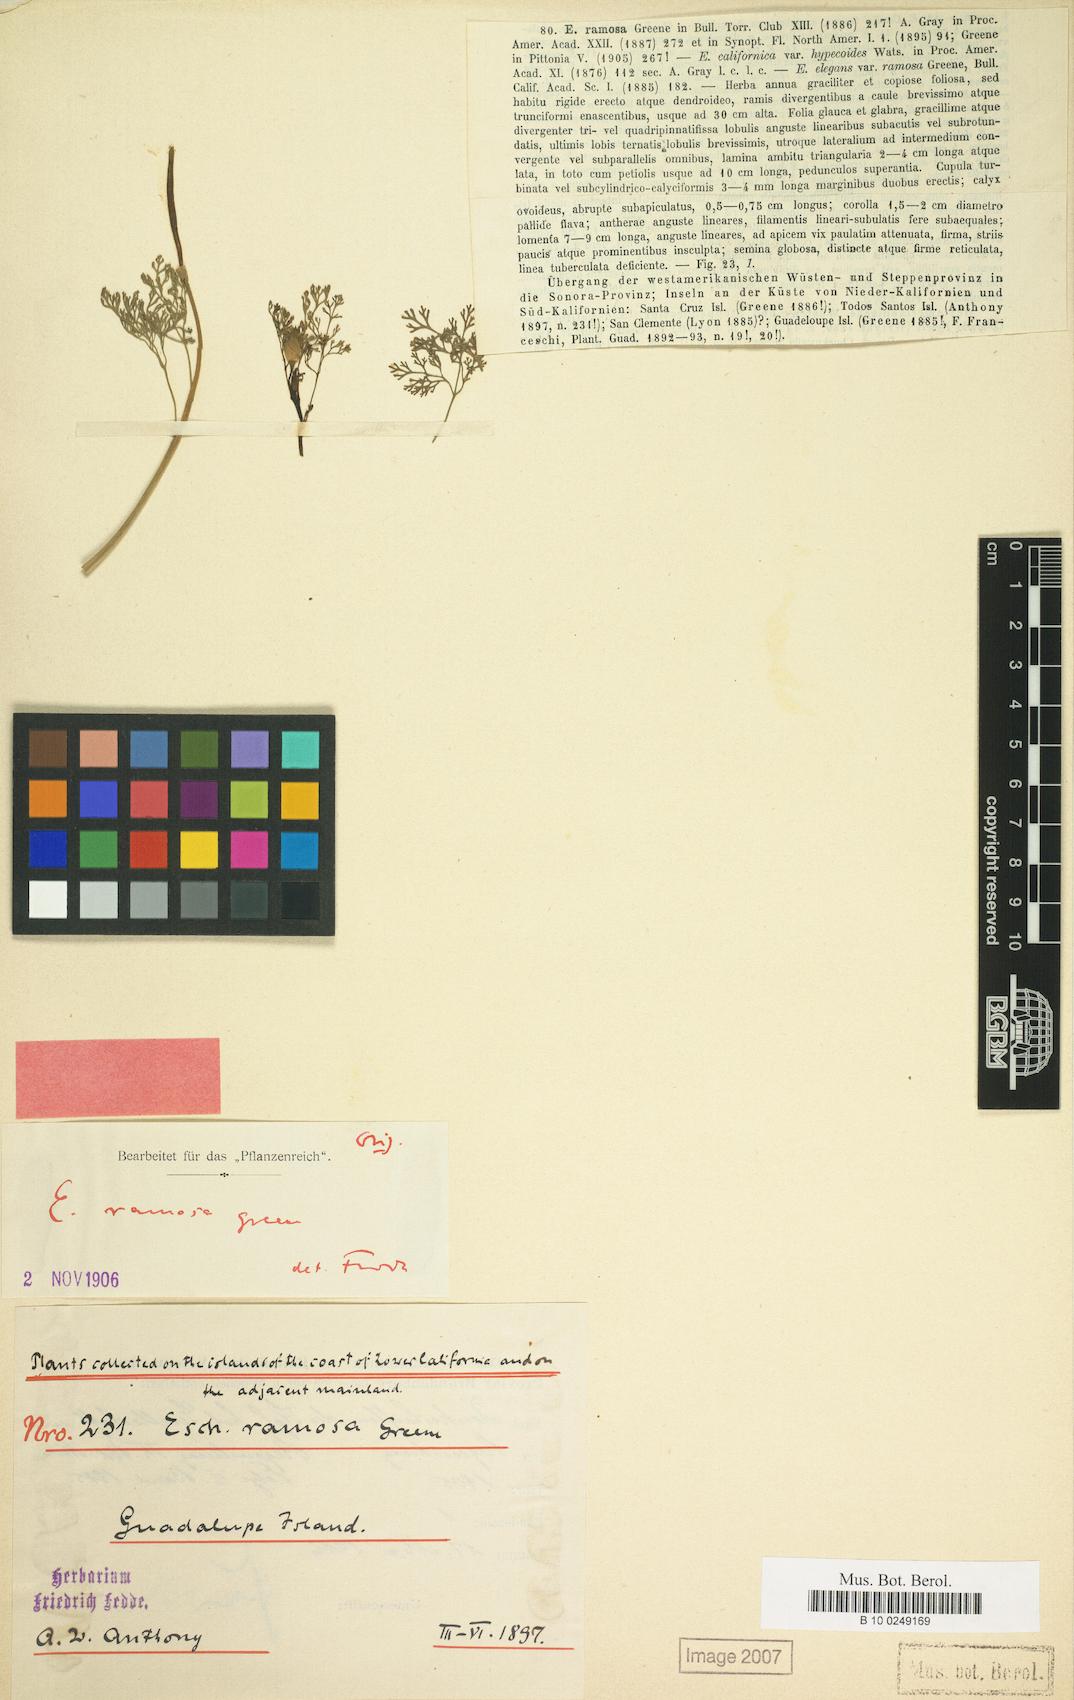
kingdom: Plantae
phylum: Tracheophyta
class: Magnoliopsida
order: Ranunculales
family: Papaveraceae
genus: Eschscholzia
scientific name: Eschscholzia ramosa
